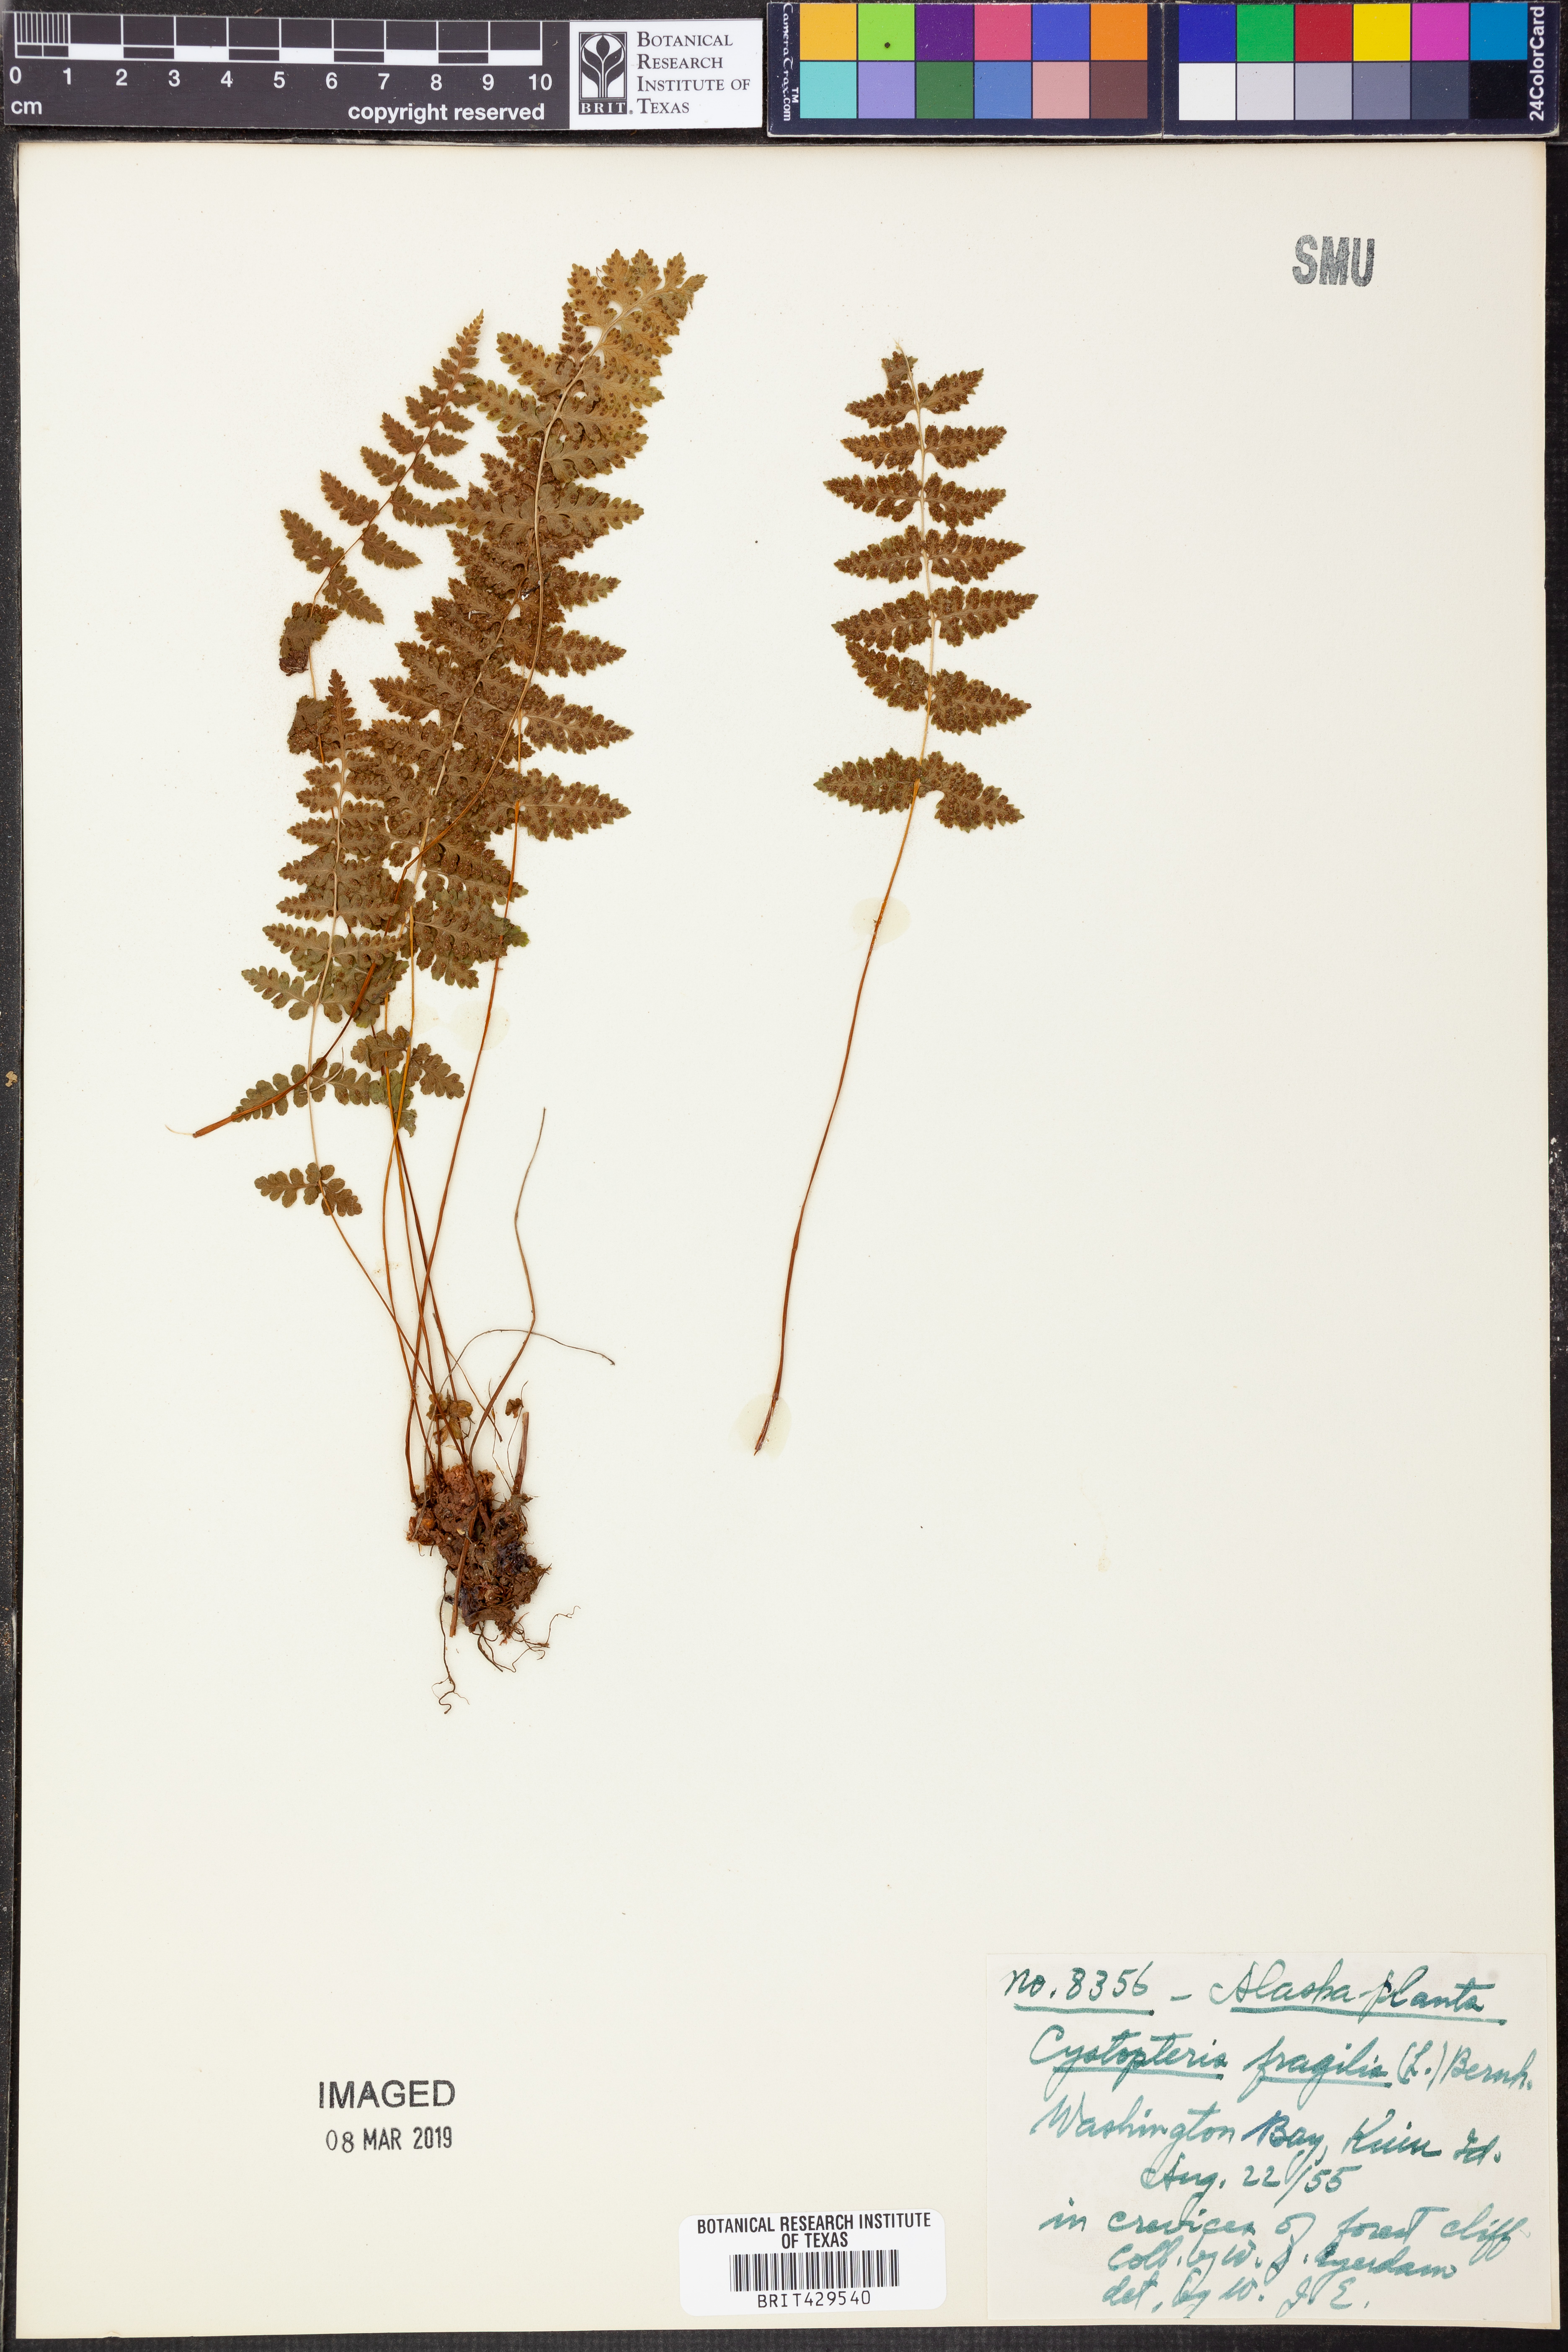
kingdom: Plantae
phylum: Tracheophyta
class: Polypodiopsida
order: Polypodiales
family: Cystopteridaceae
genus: Cystopteris
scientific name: Cystopteris fragilis
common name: Brittle bladder fern
